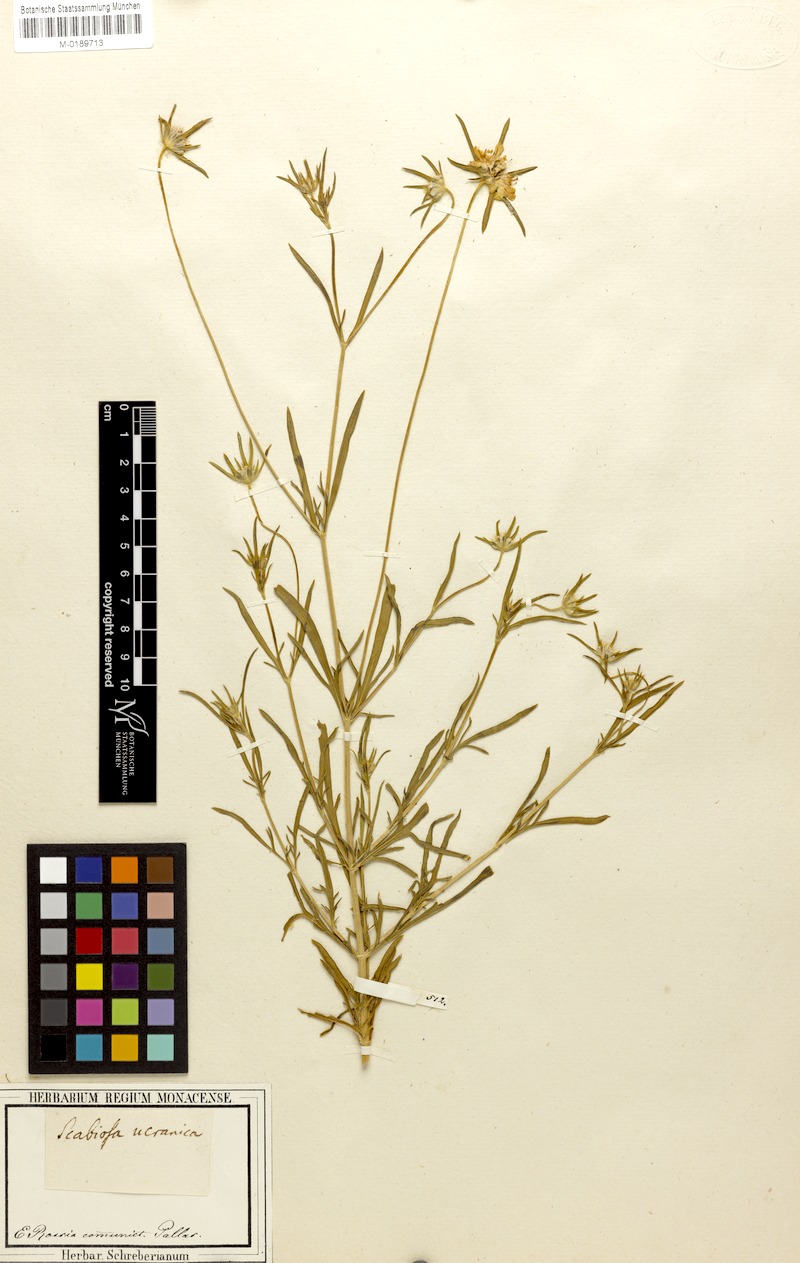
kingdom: Plantae
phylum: Tracheophyta
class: Magnoliopsida
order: Dipsacales
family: Caprifoliaceae
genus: Lomelosia
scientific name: Lomelosia argentea
